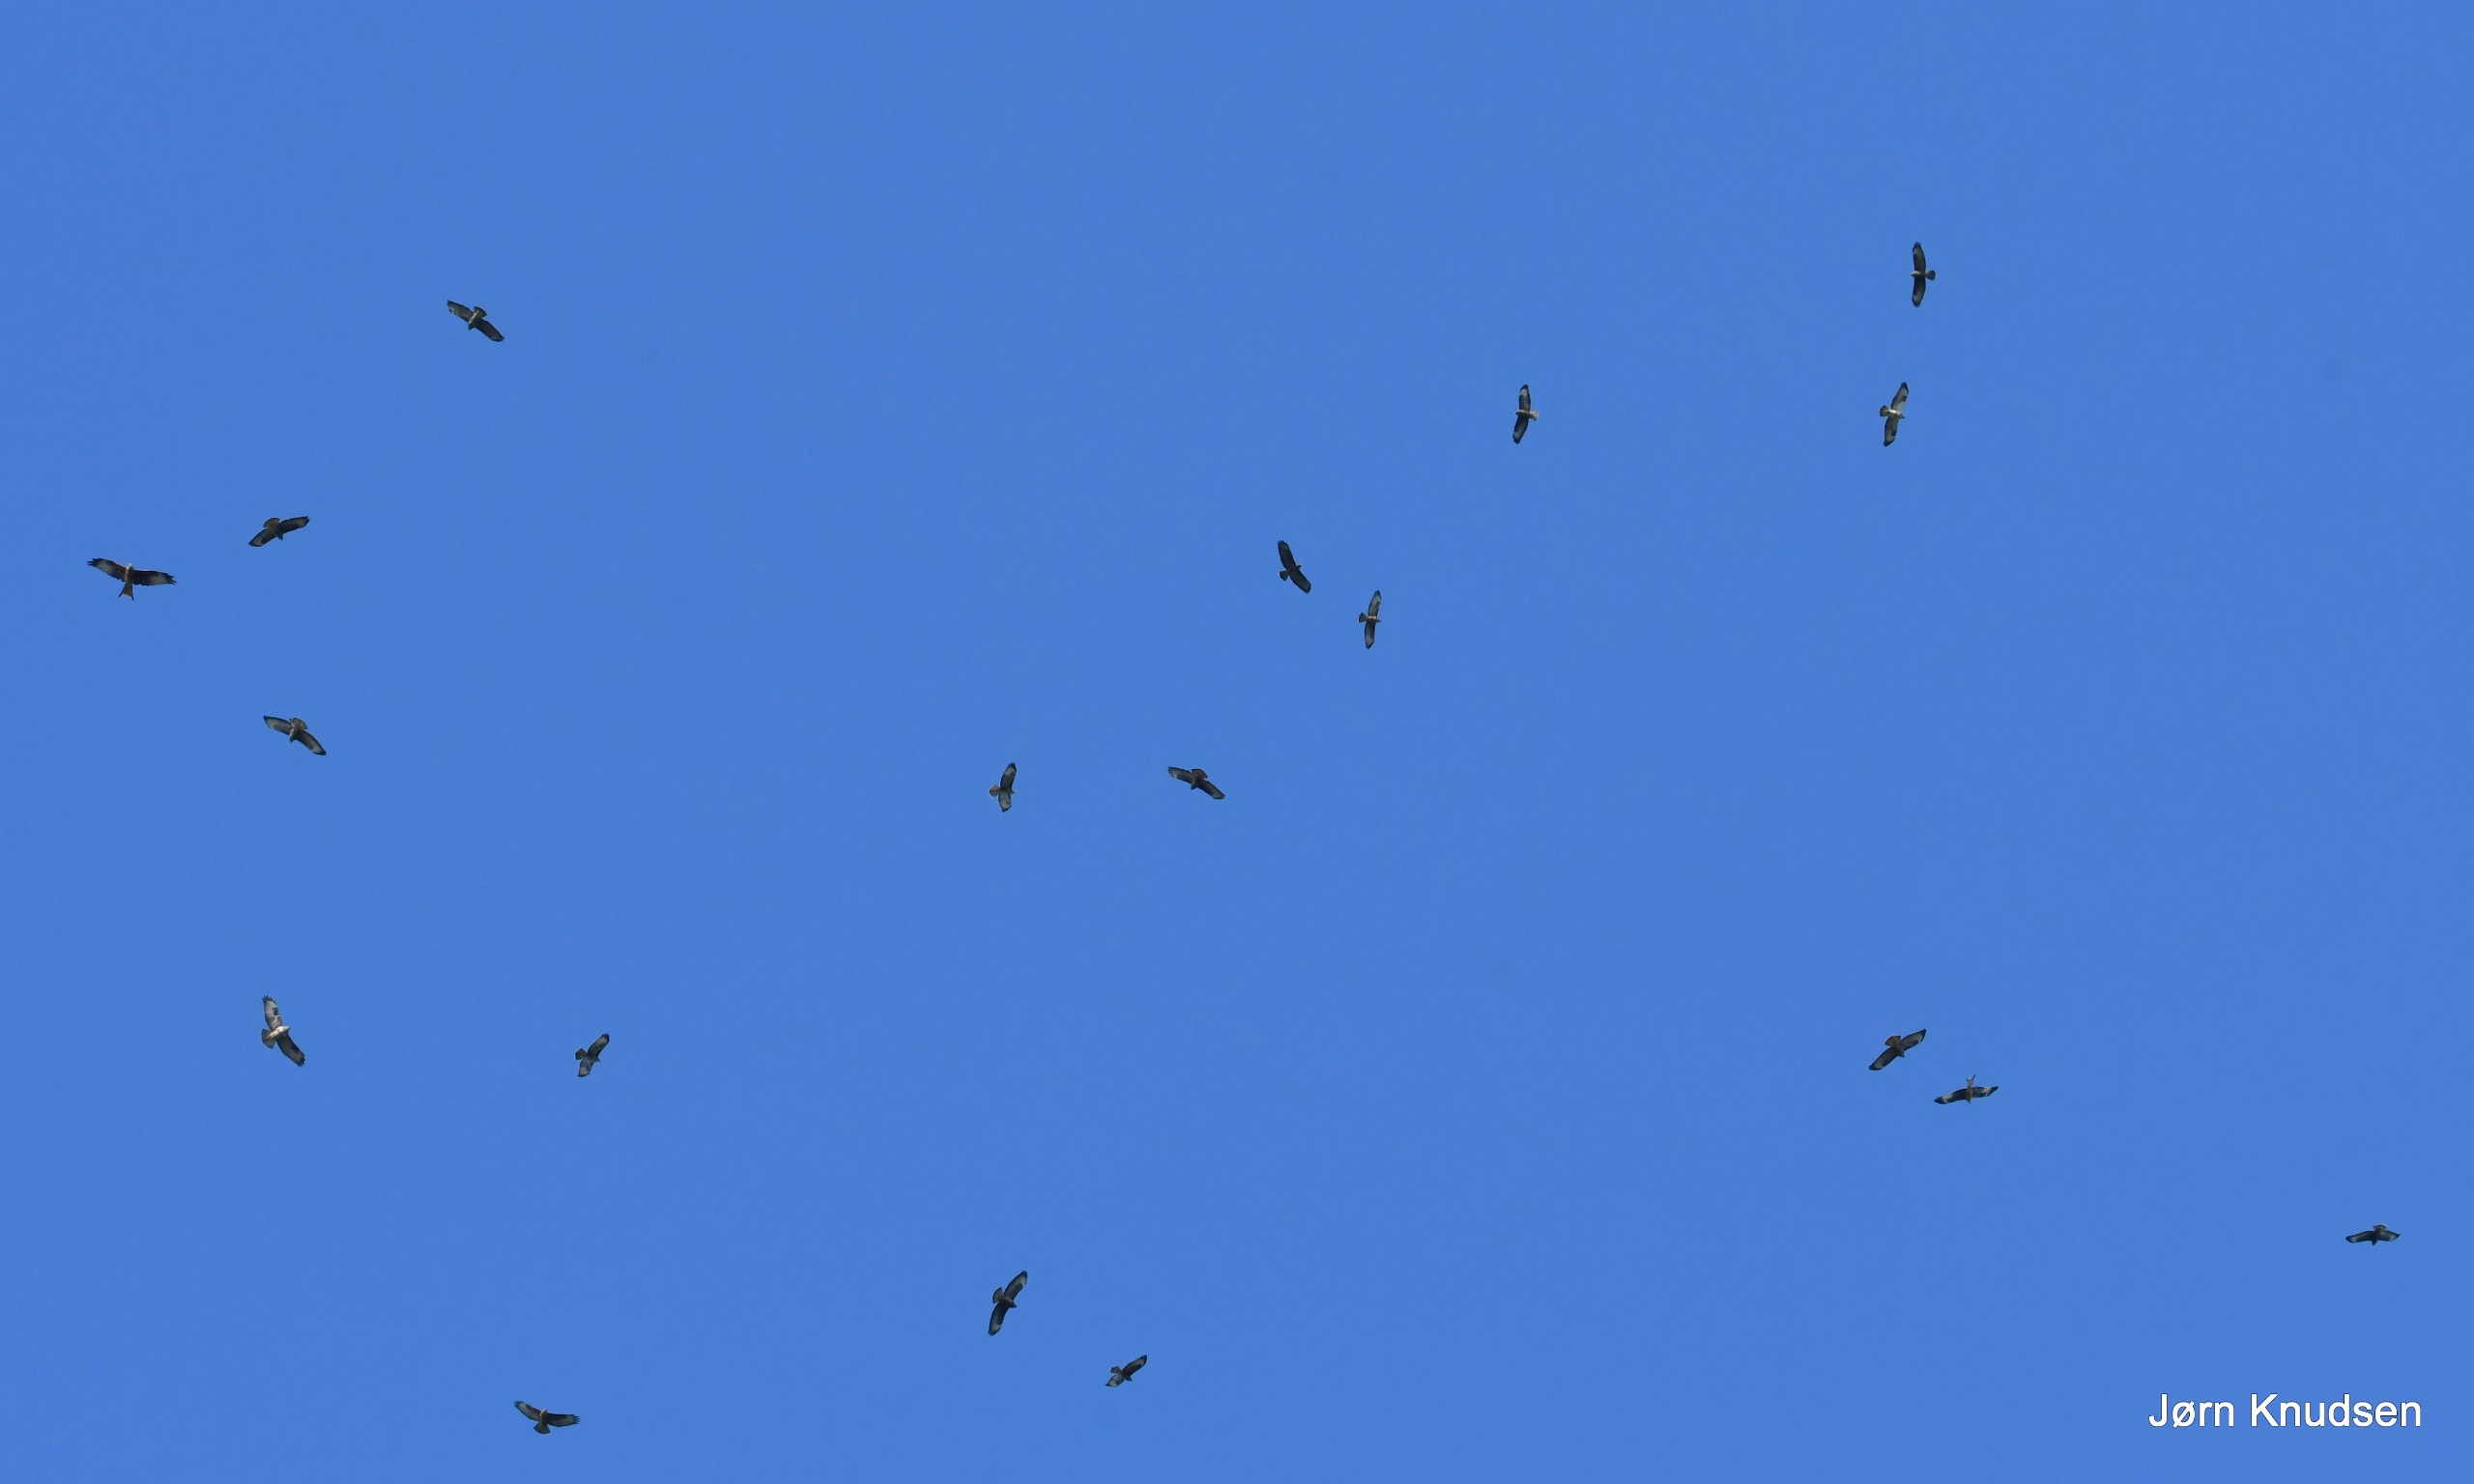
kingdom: Animalia
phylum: Chordata
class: Aves
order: Accipitriformes
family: Accipitridae
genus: Buteo
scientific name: Buteo buteo
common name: Musvåge
